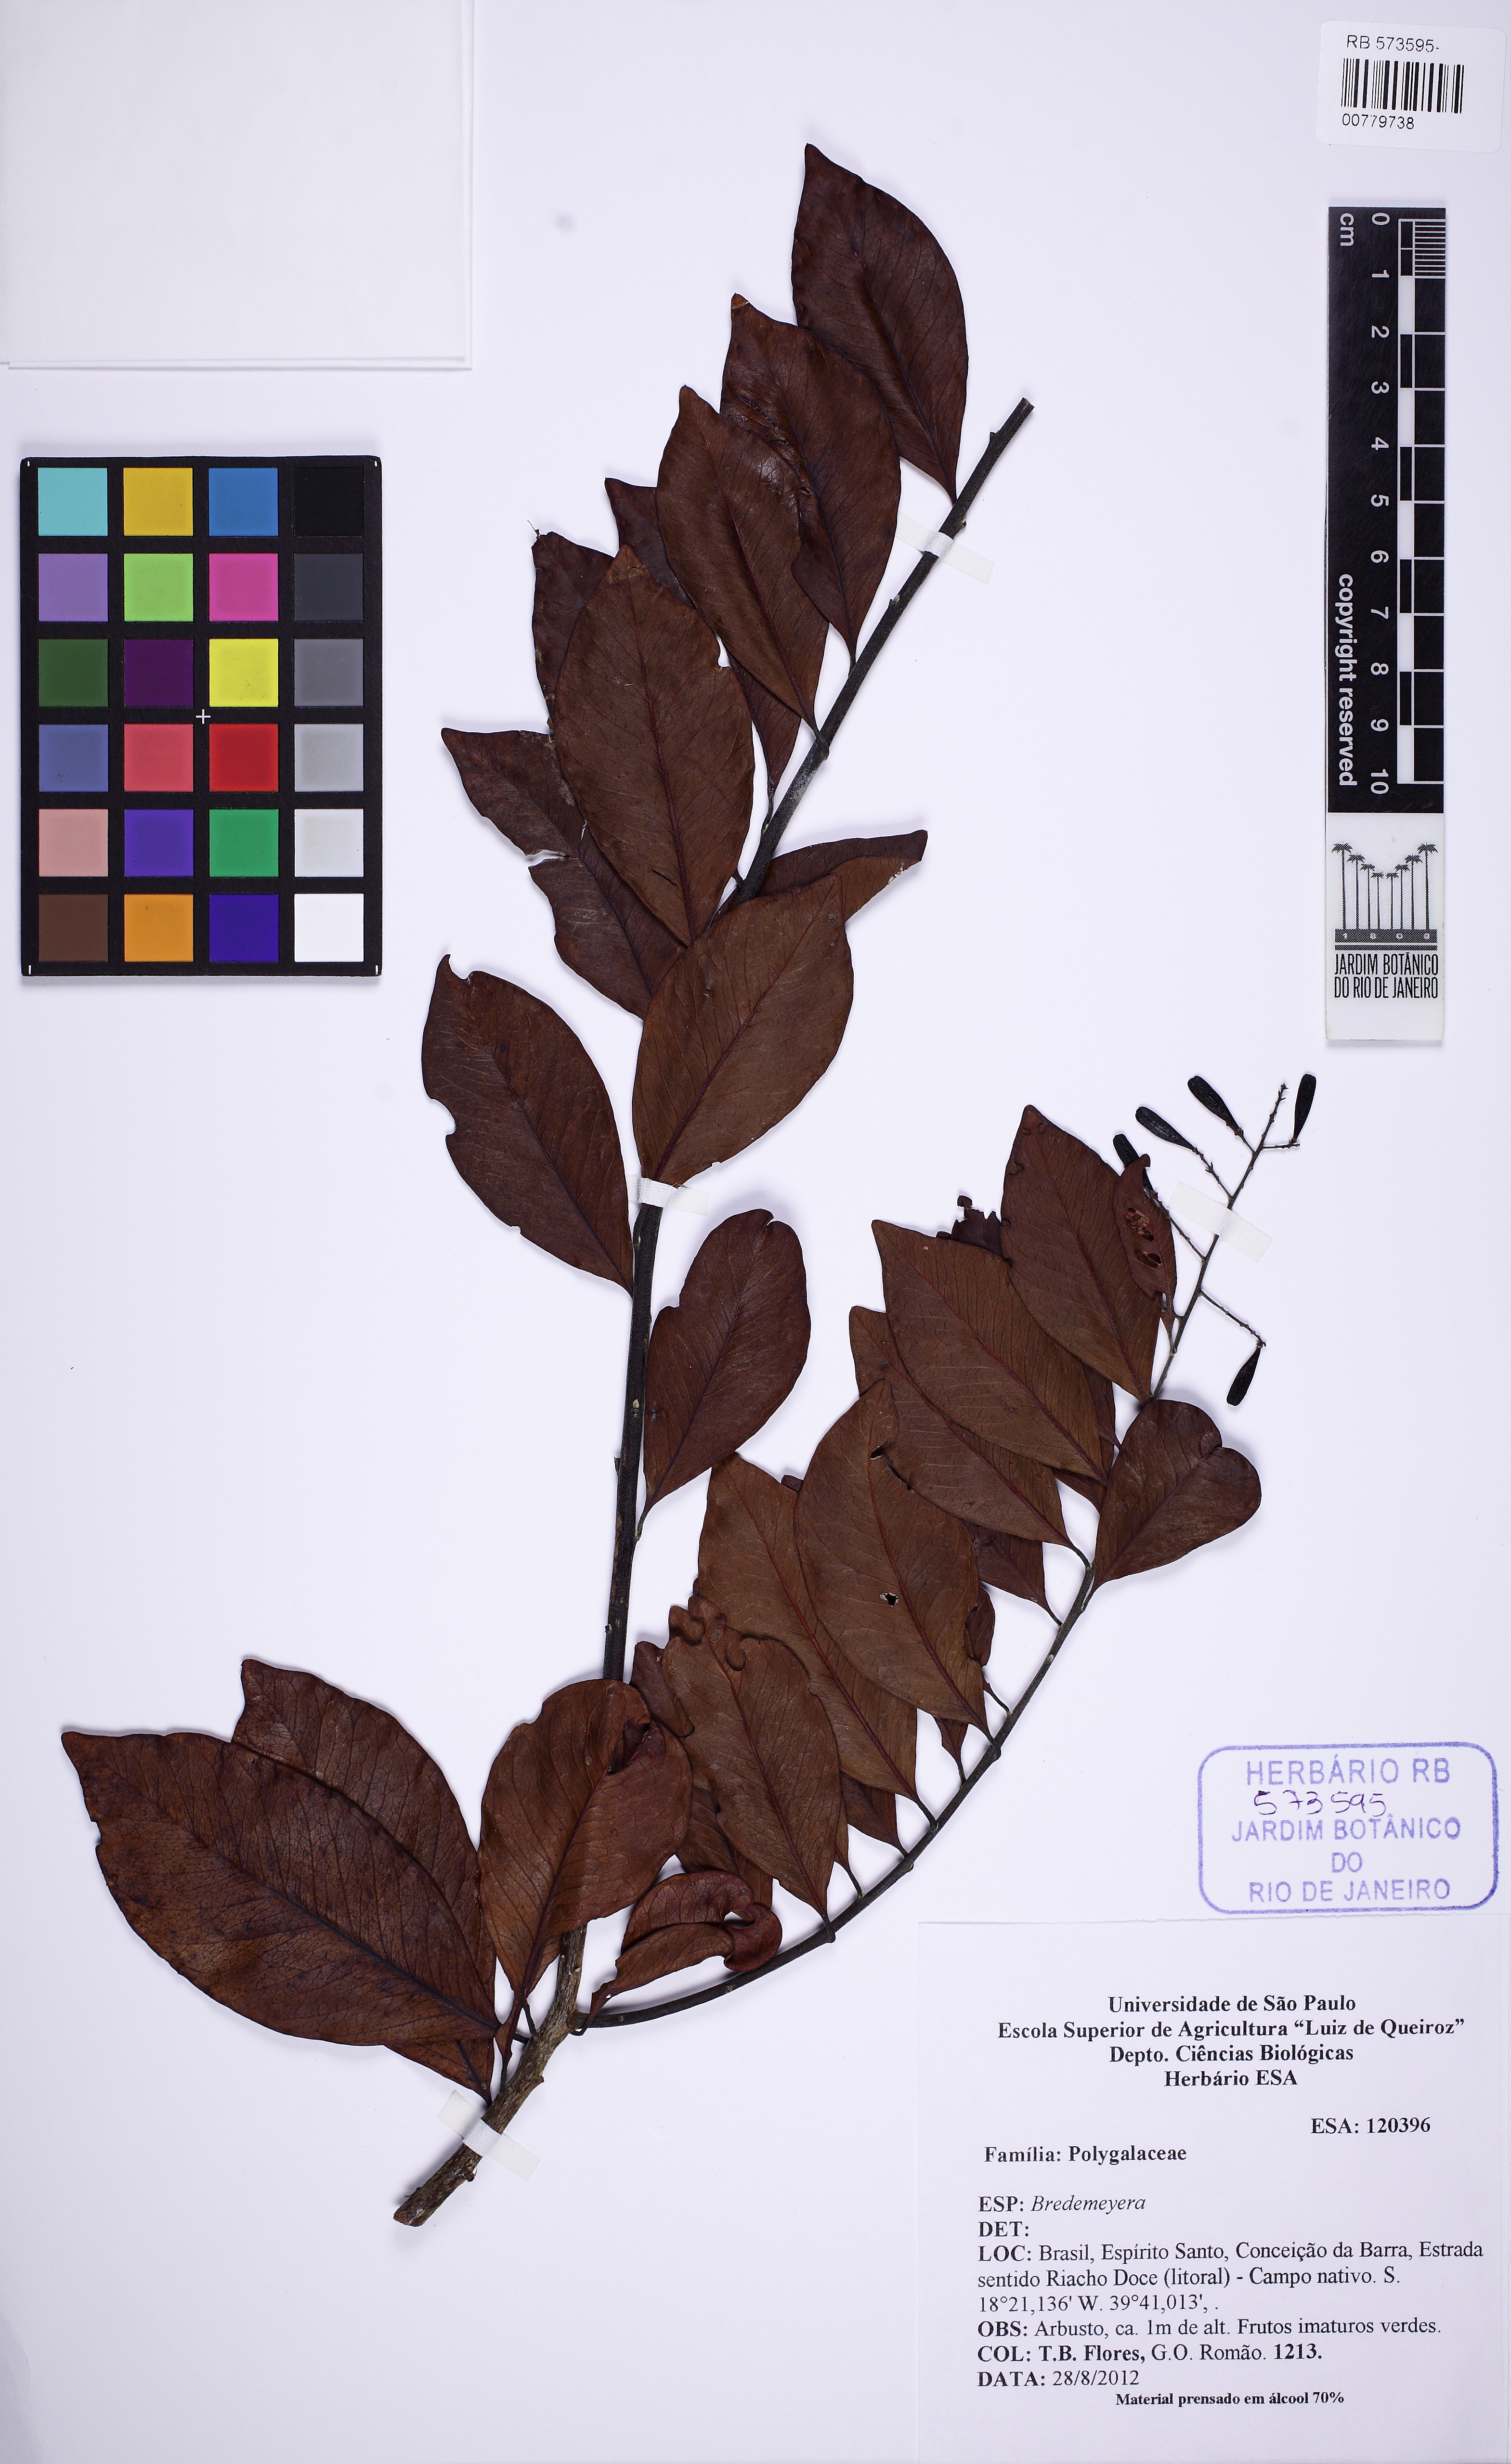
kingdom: Plantae
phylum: Tracheophyta
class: Magnoliopsida
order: Fabales
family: Polygalaceae
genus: Bredemeyera
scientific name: Bredemeyera
